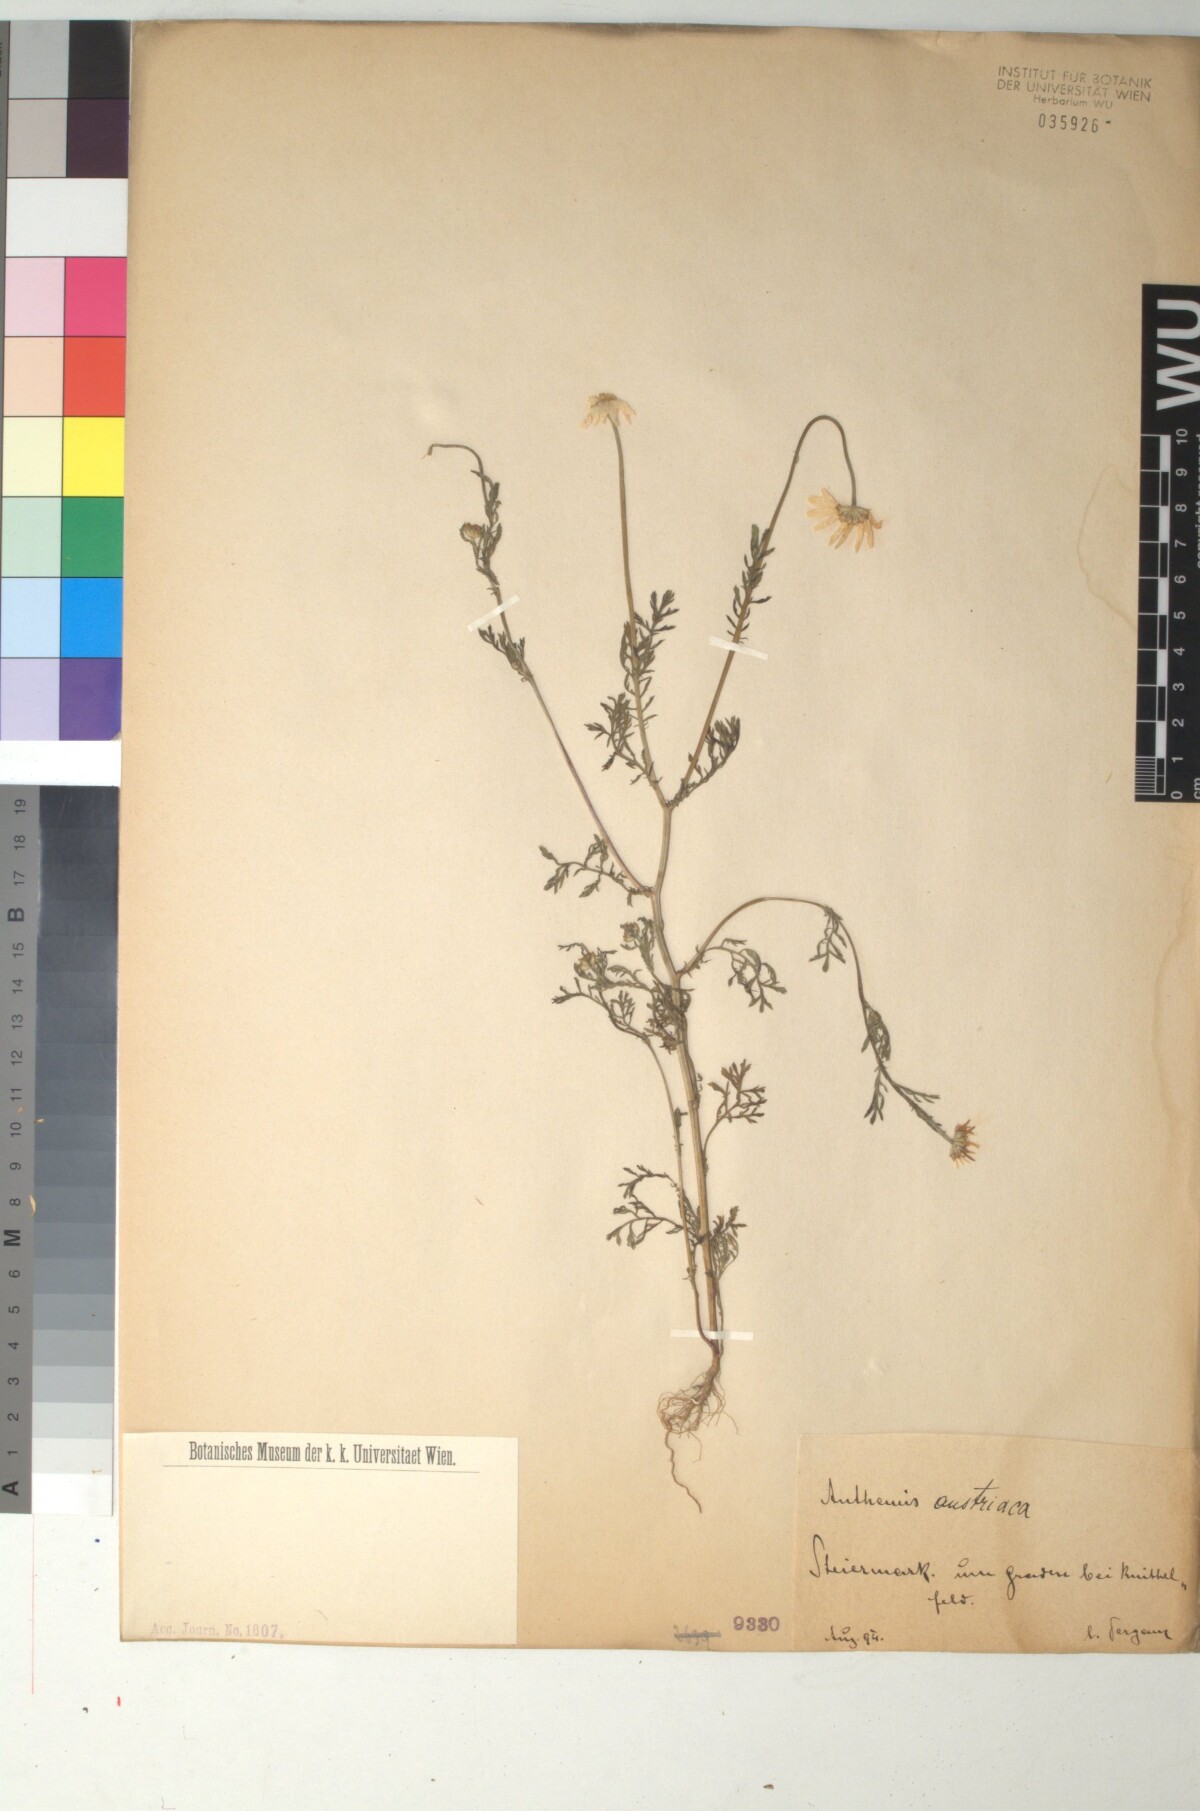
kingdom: Plantae
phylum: Tracheophyta
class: Magnoliopsida
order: Asterales
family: Asteraceae
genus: Cota
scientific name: Cota austriaca
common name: Austrian chamomile
